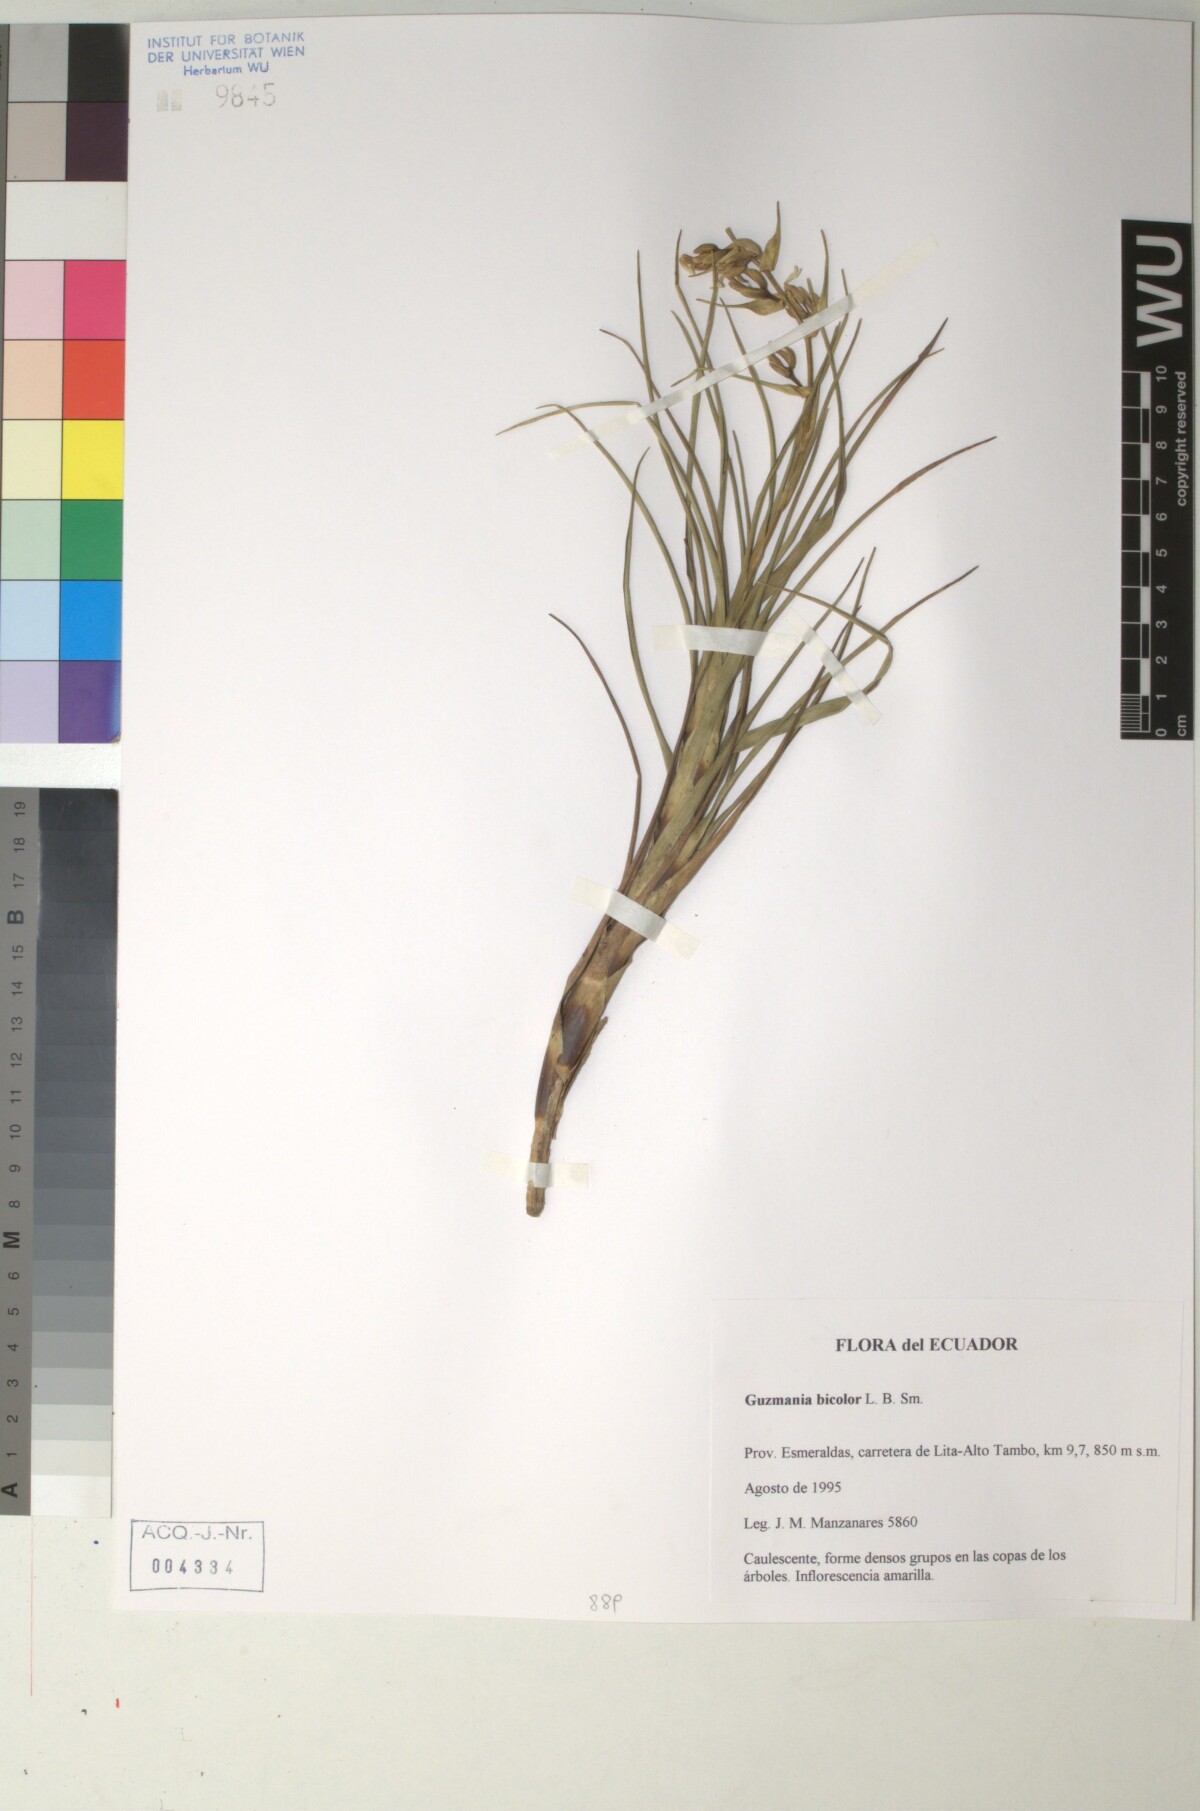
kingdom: Plantae
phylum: Tracheophyta
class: Liliopsida
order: Poales
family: Bromeliaceae
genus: Guzmania
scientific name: Guzmania bicolor
